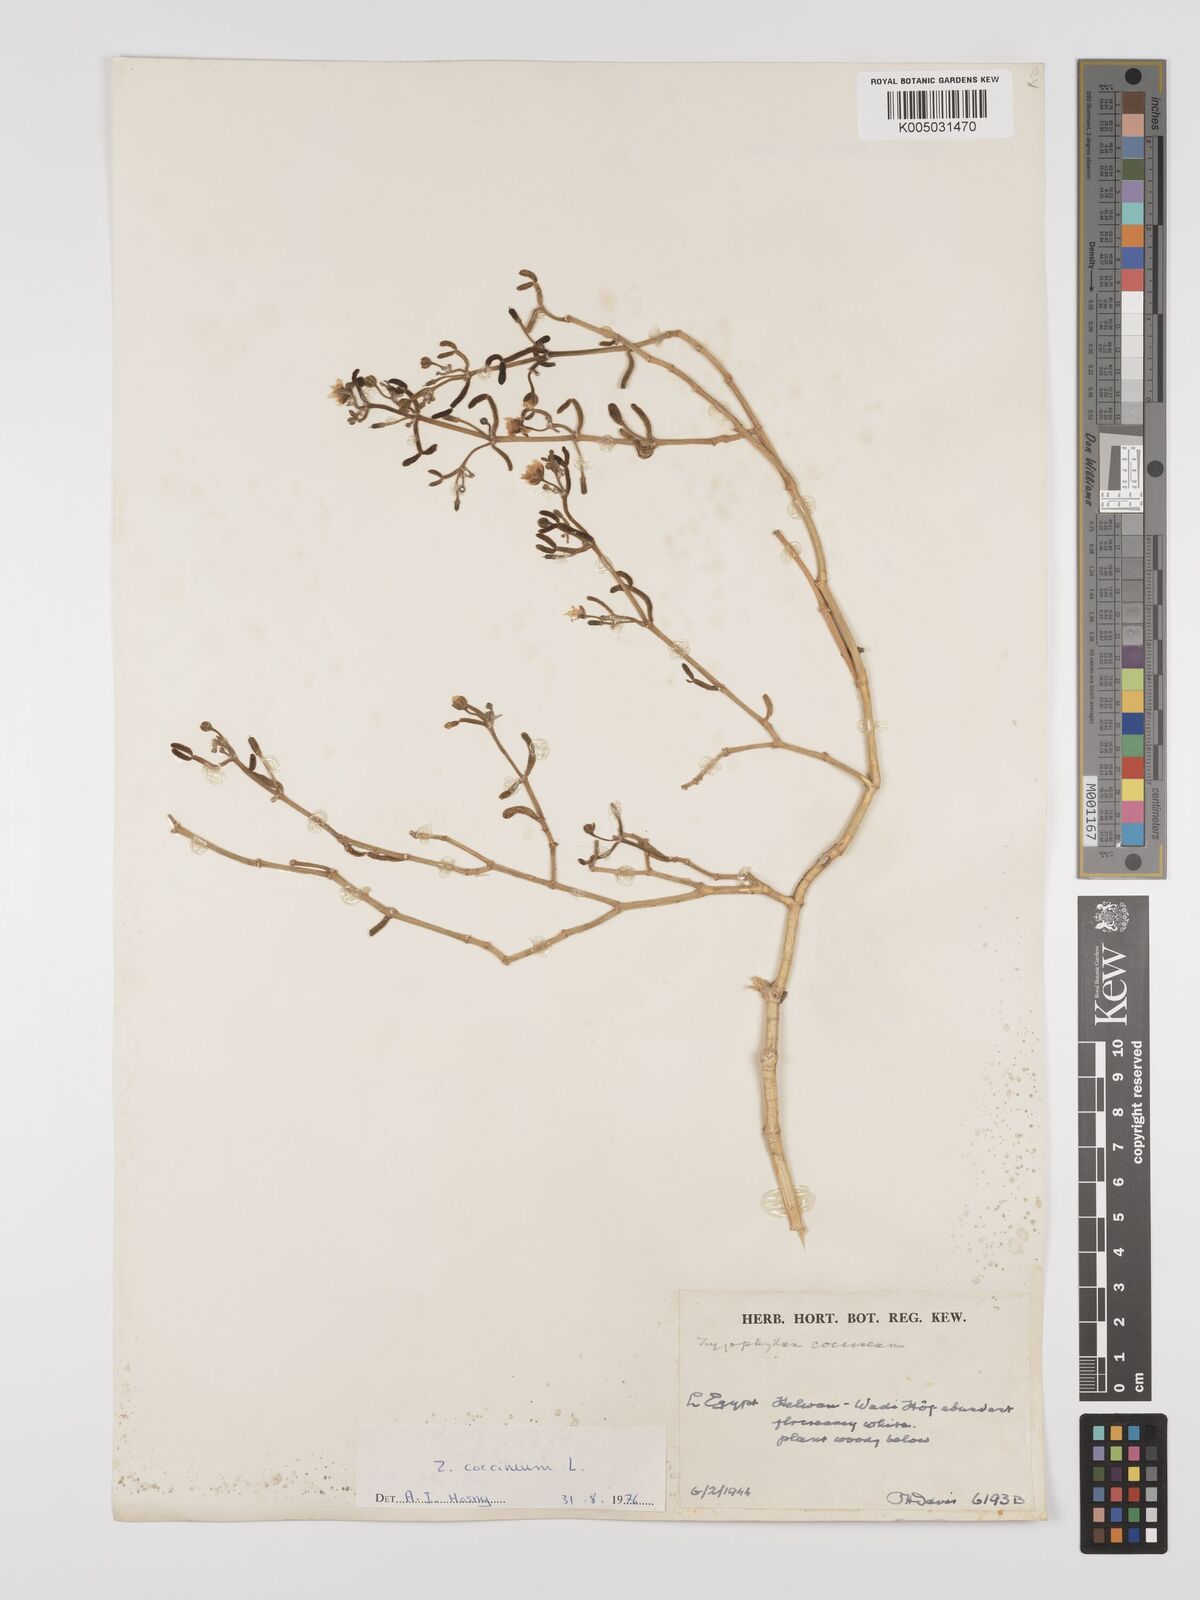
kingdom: Plantae
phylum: Tracheophyta
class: Magnoliopsida
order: Zygophyllales
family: Zygophyllaceae
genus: Tetraena
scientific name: Tetraena coccinea
